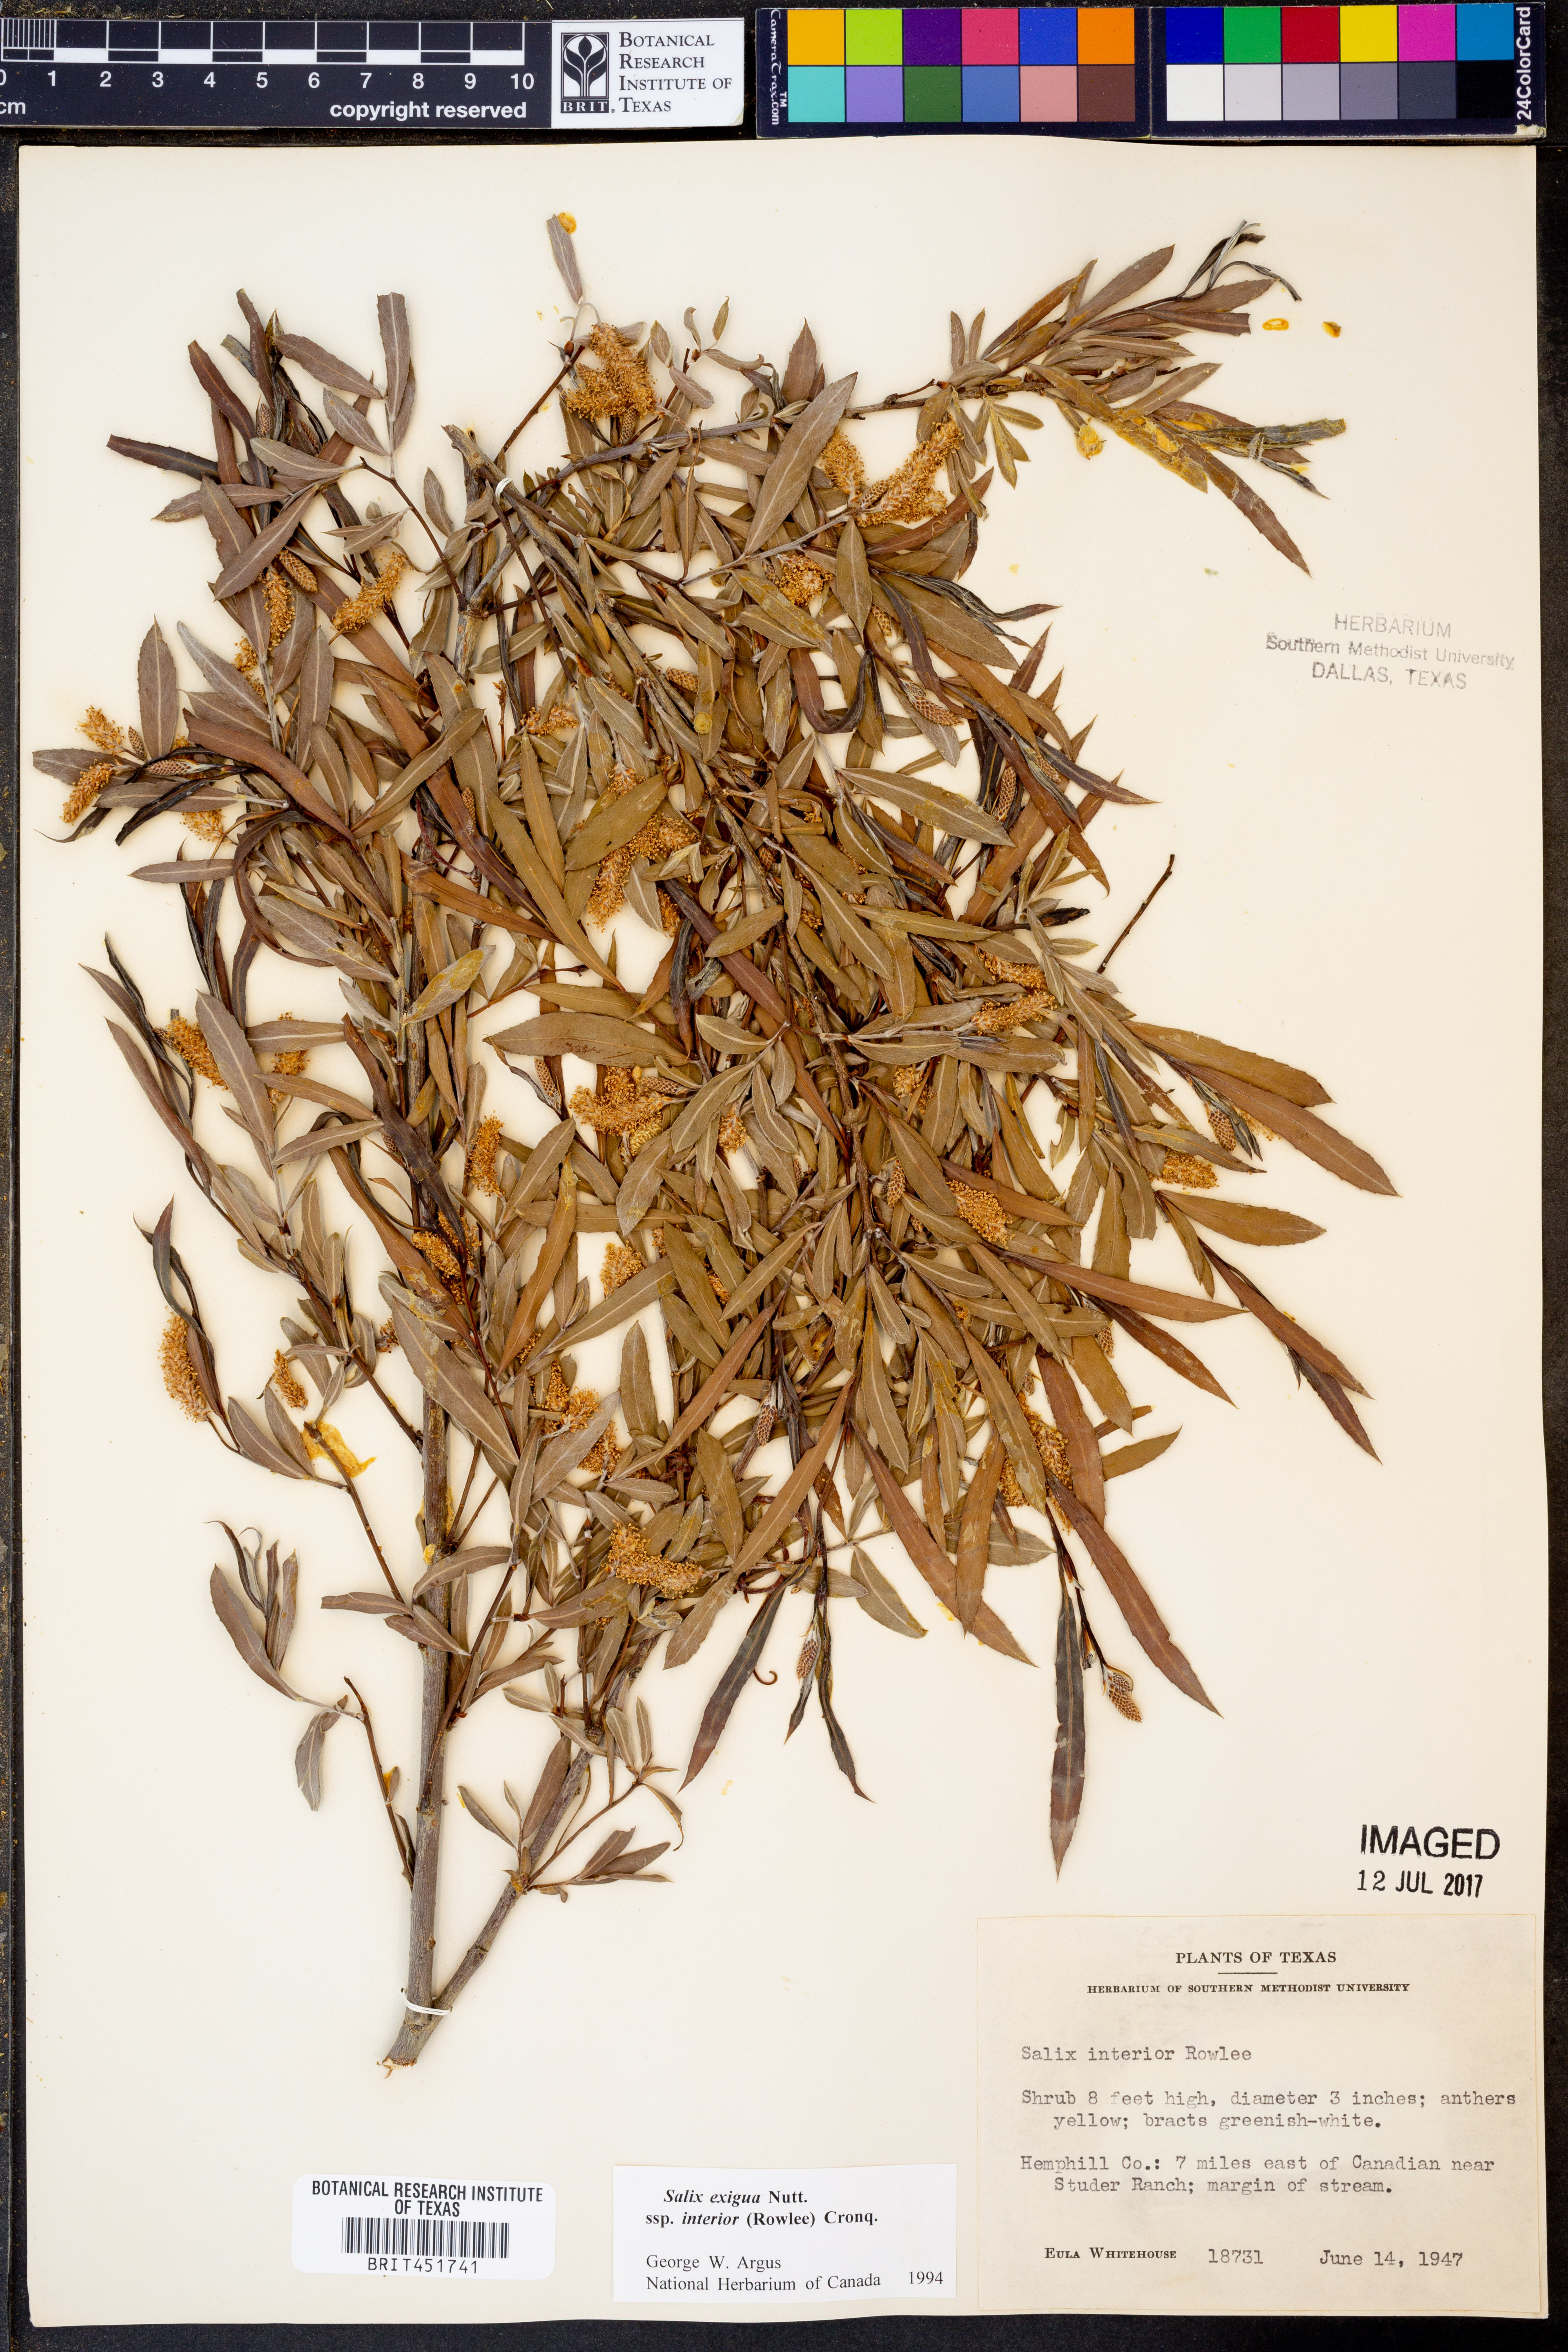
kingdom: Plantae
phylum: Tracheophyta
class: Magnoliopsida
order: Malpighiales
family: Salicaceae
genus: Salix
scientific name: Salix exigua
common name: Coyote willow
